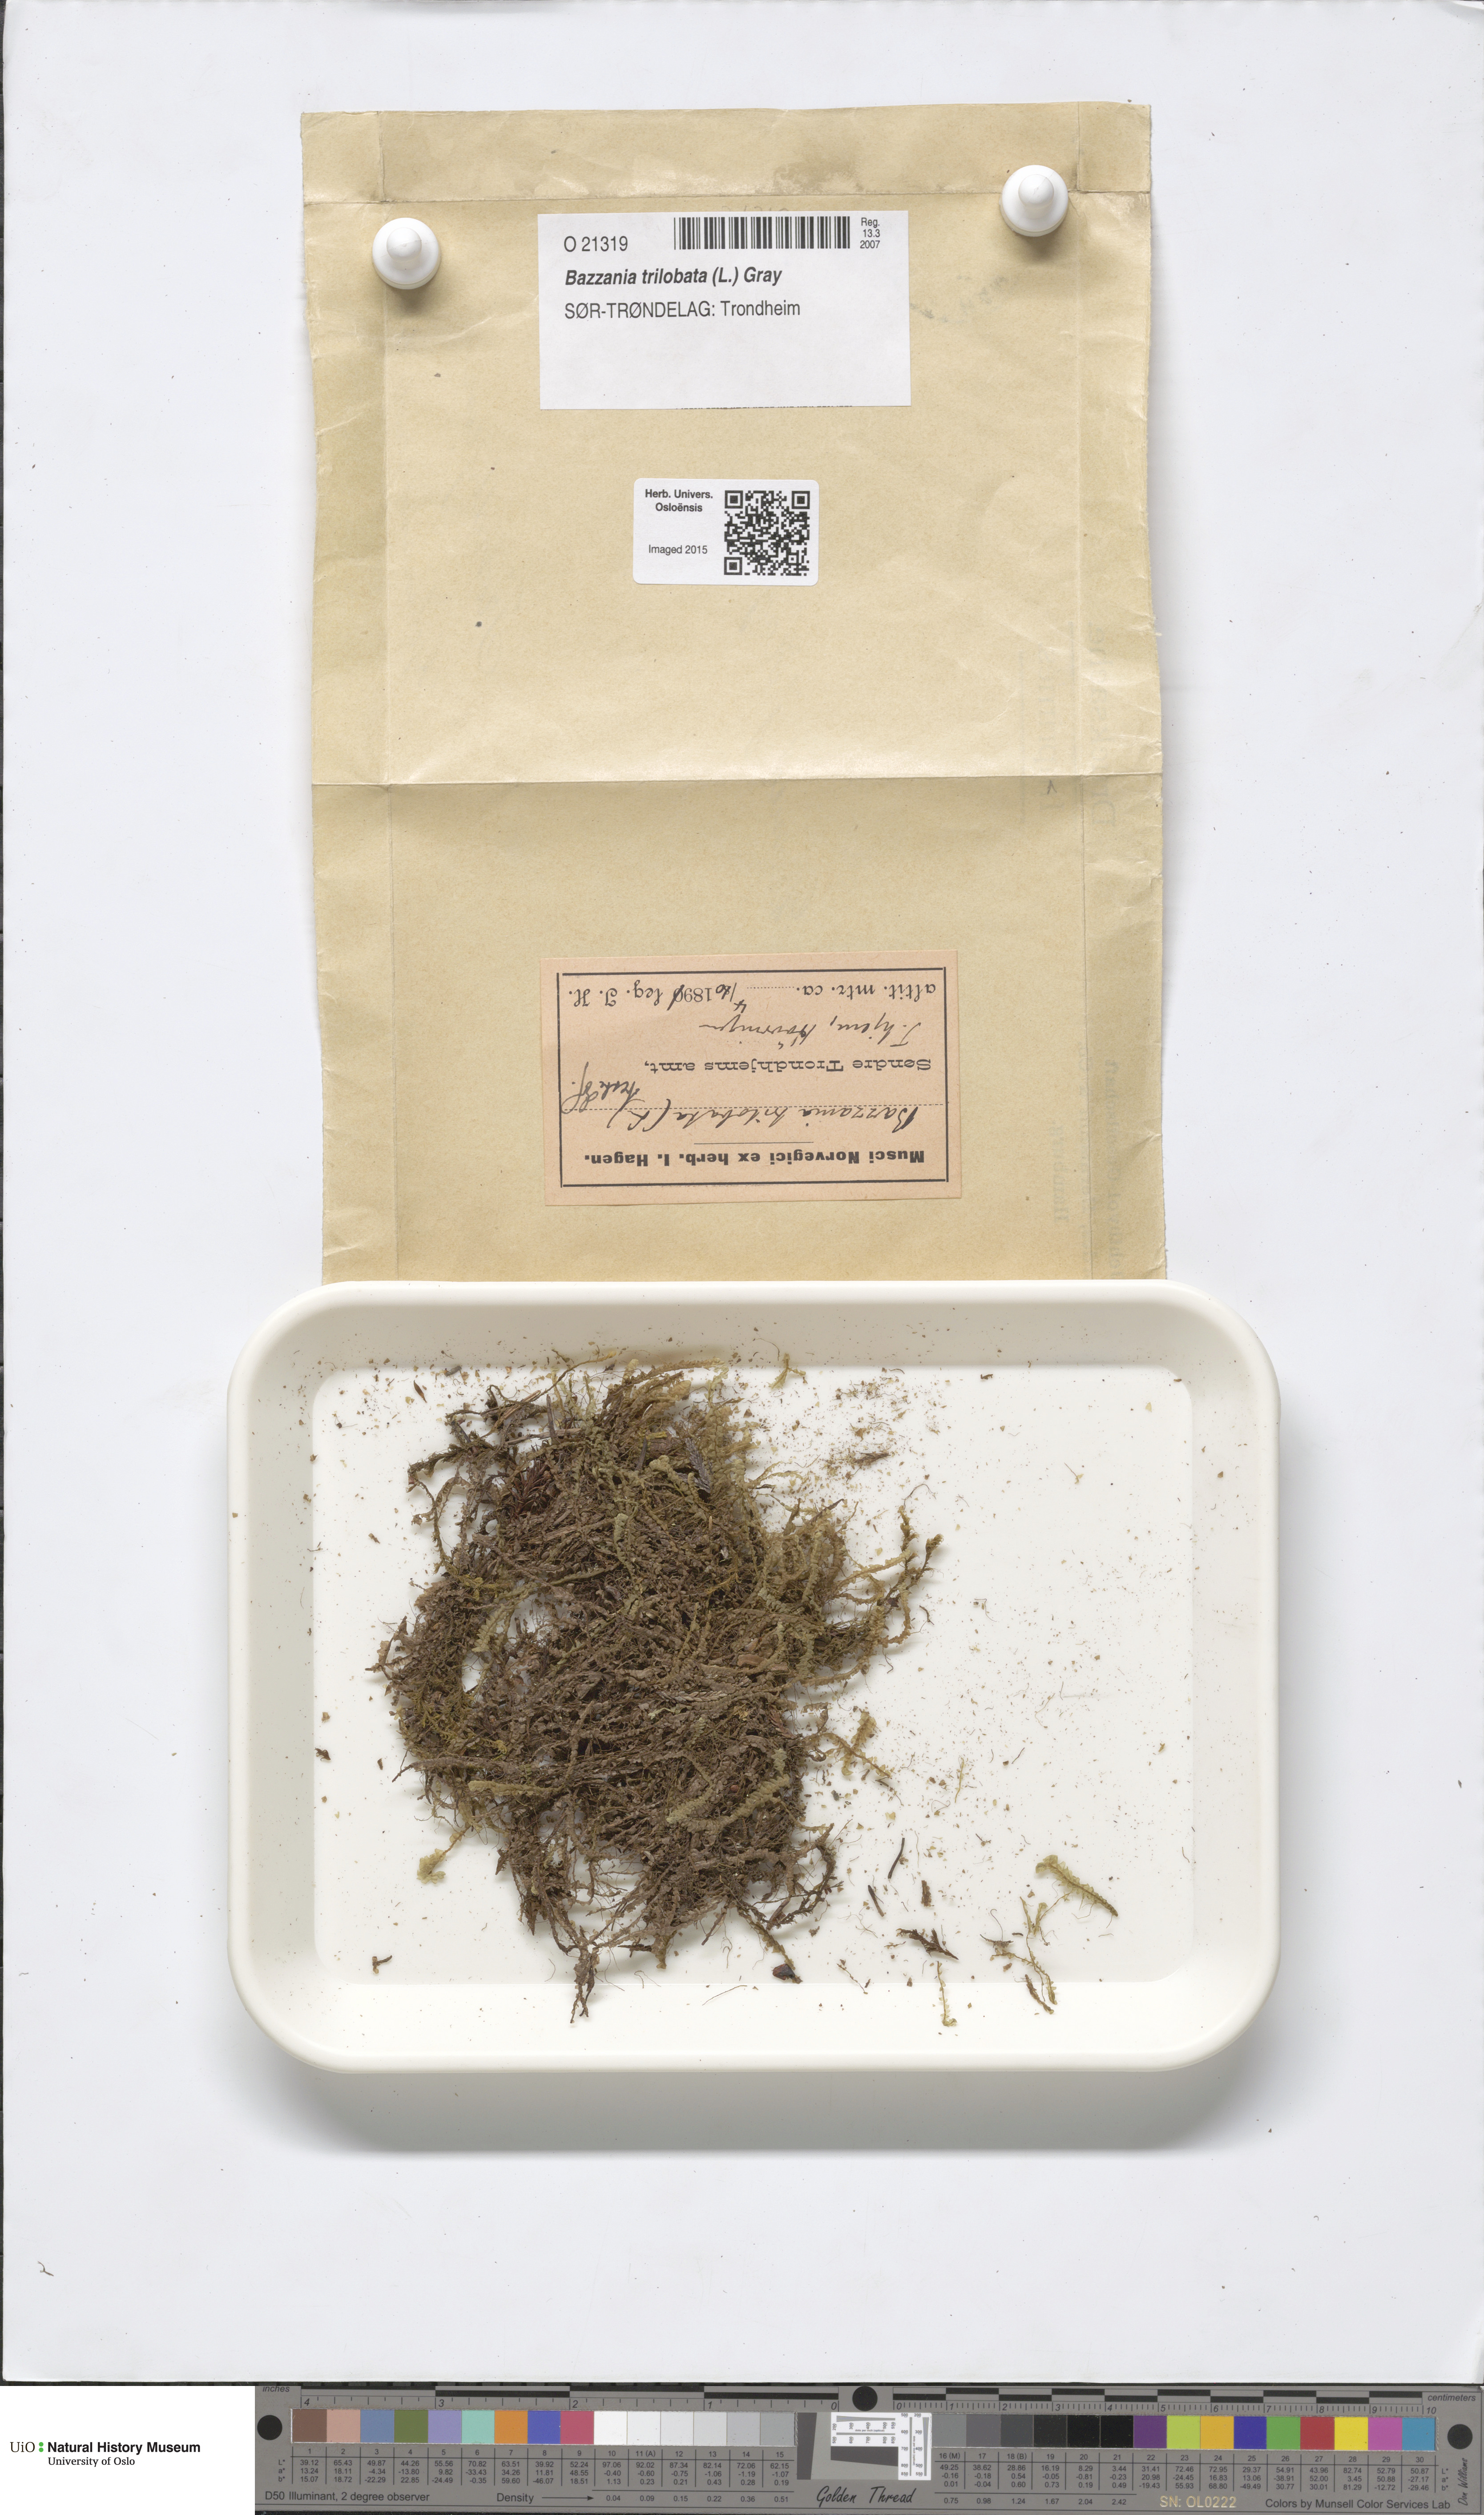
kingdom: Plantae
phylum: Marchantiophyta
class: Jungermanniopsida
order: Jungermanniales
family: Lepidoziaceae
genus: Bazzania
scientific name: Bazzania trilobata
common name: Three-lobed whipwort
